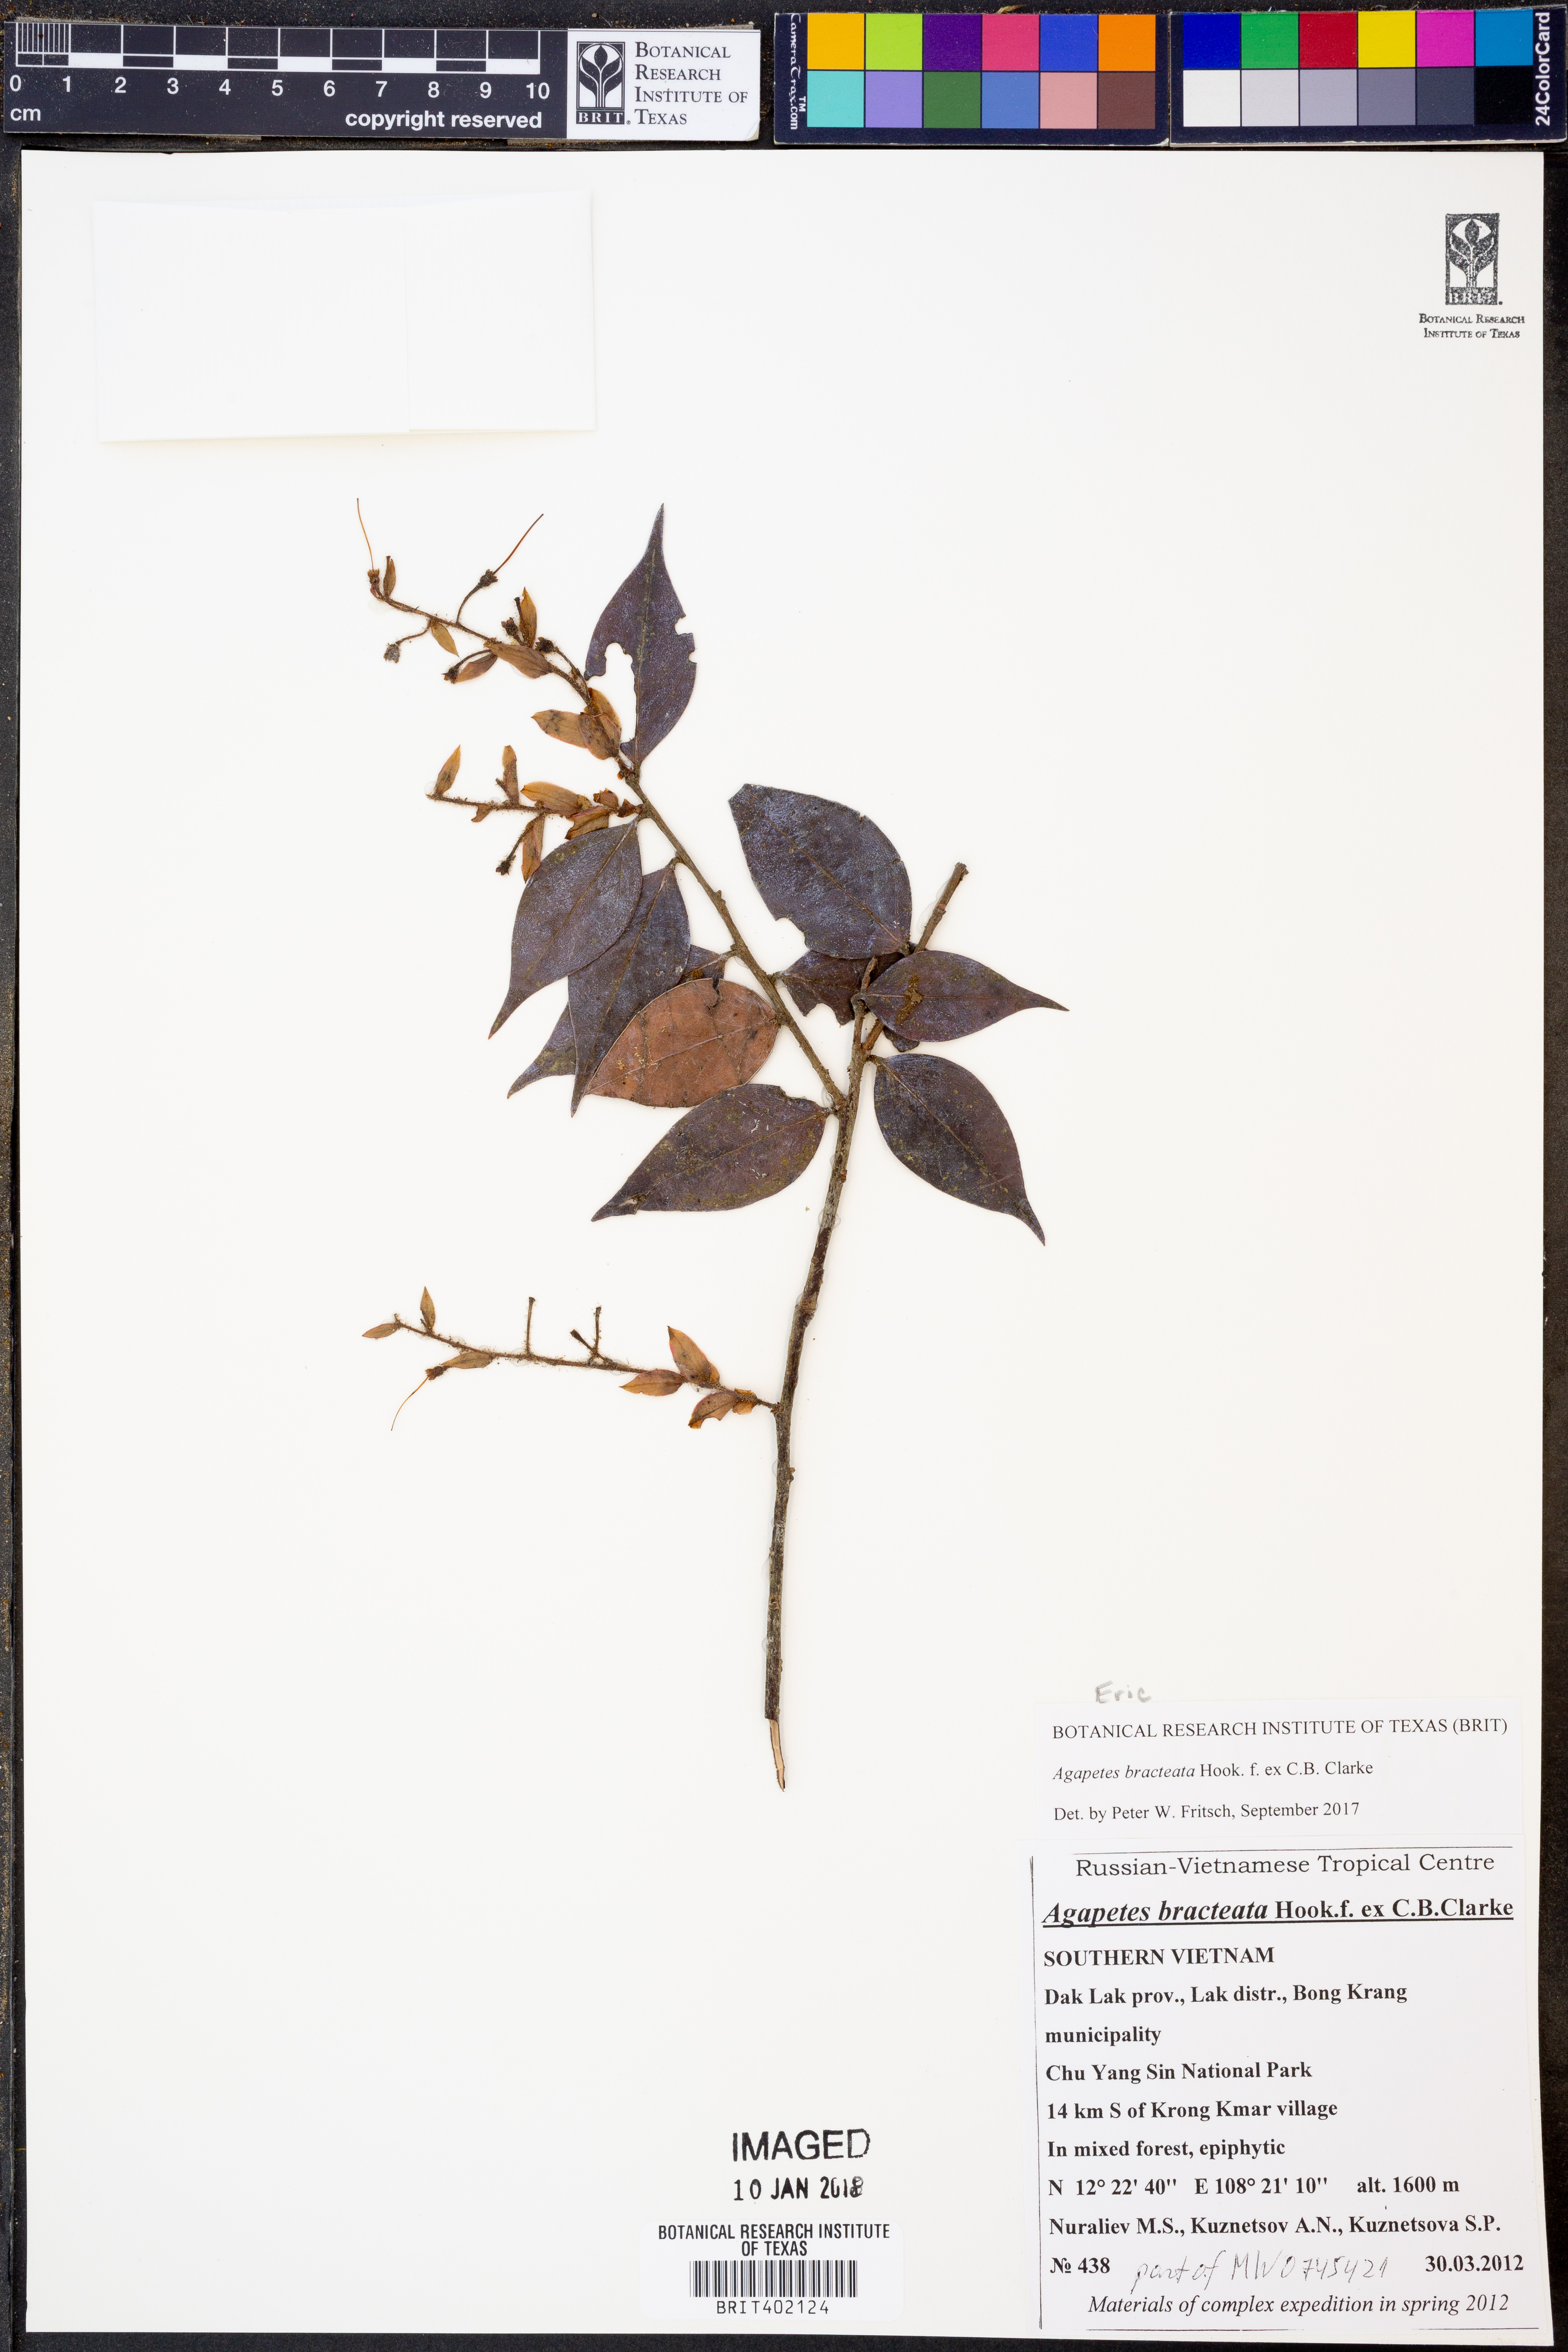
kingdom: Plantae
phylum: Tracheophyta
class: Magnoliopsida
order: Ericales
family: Ericaceae
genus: Agapetes
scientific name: Agapetes bracteata
